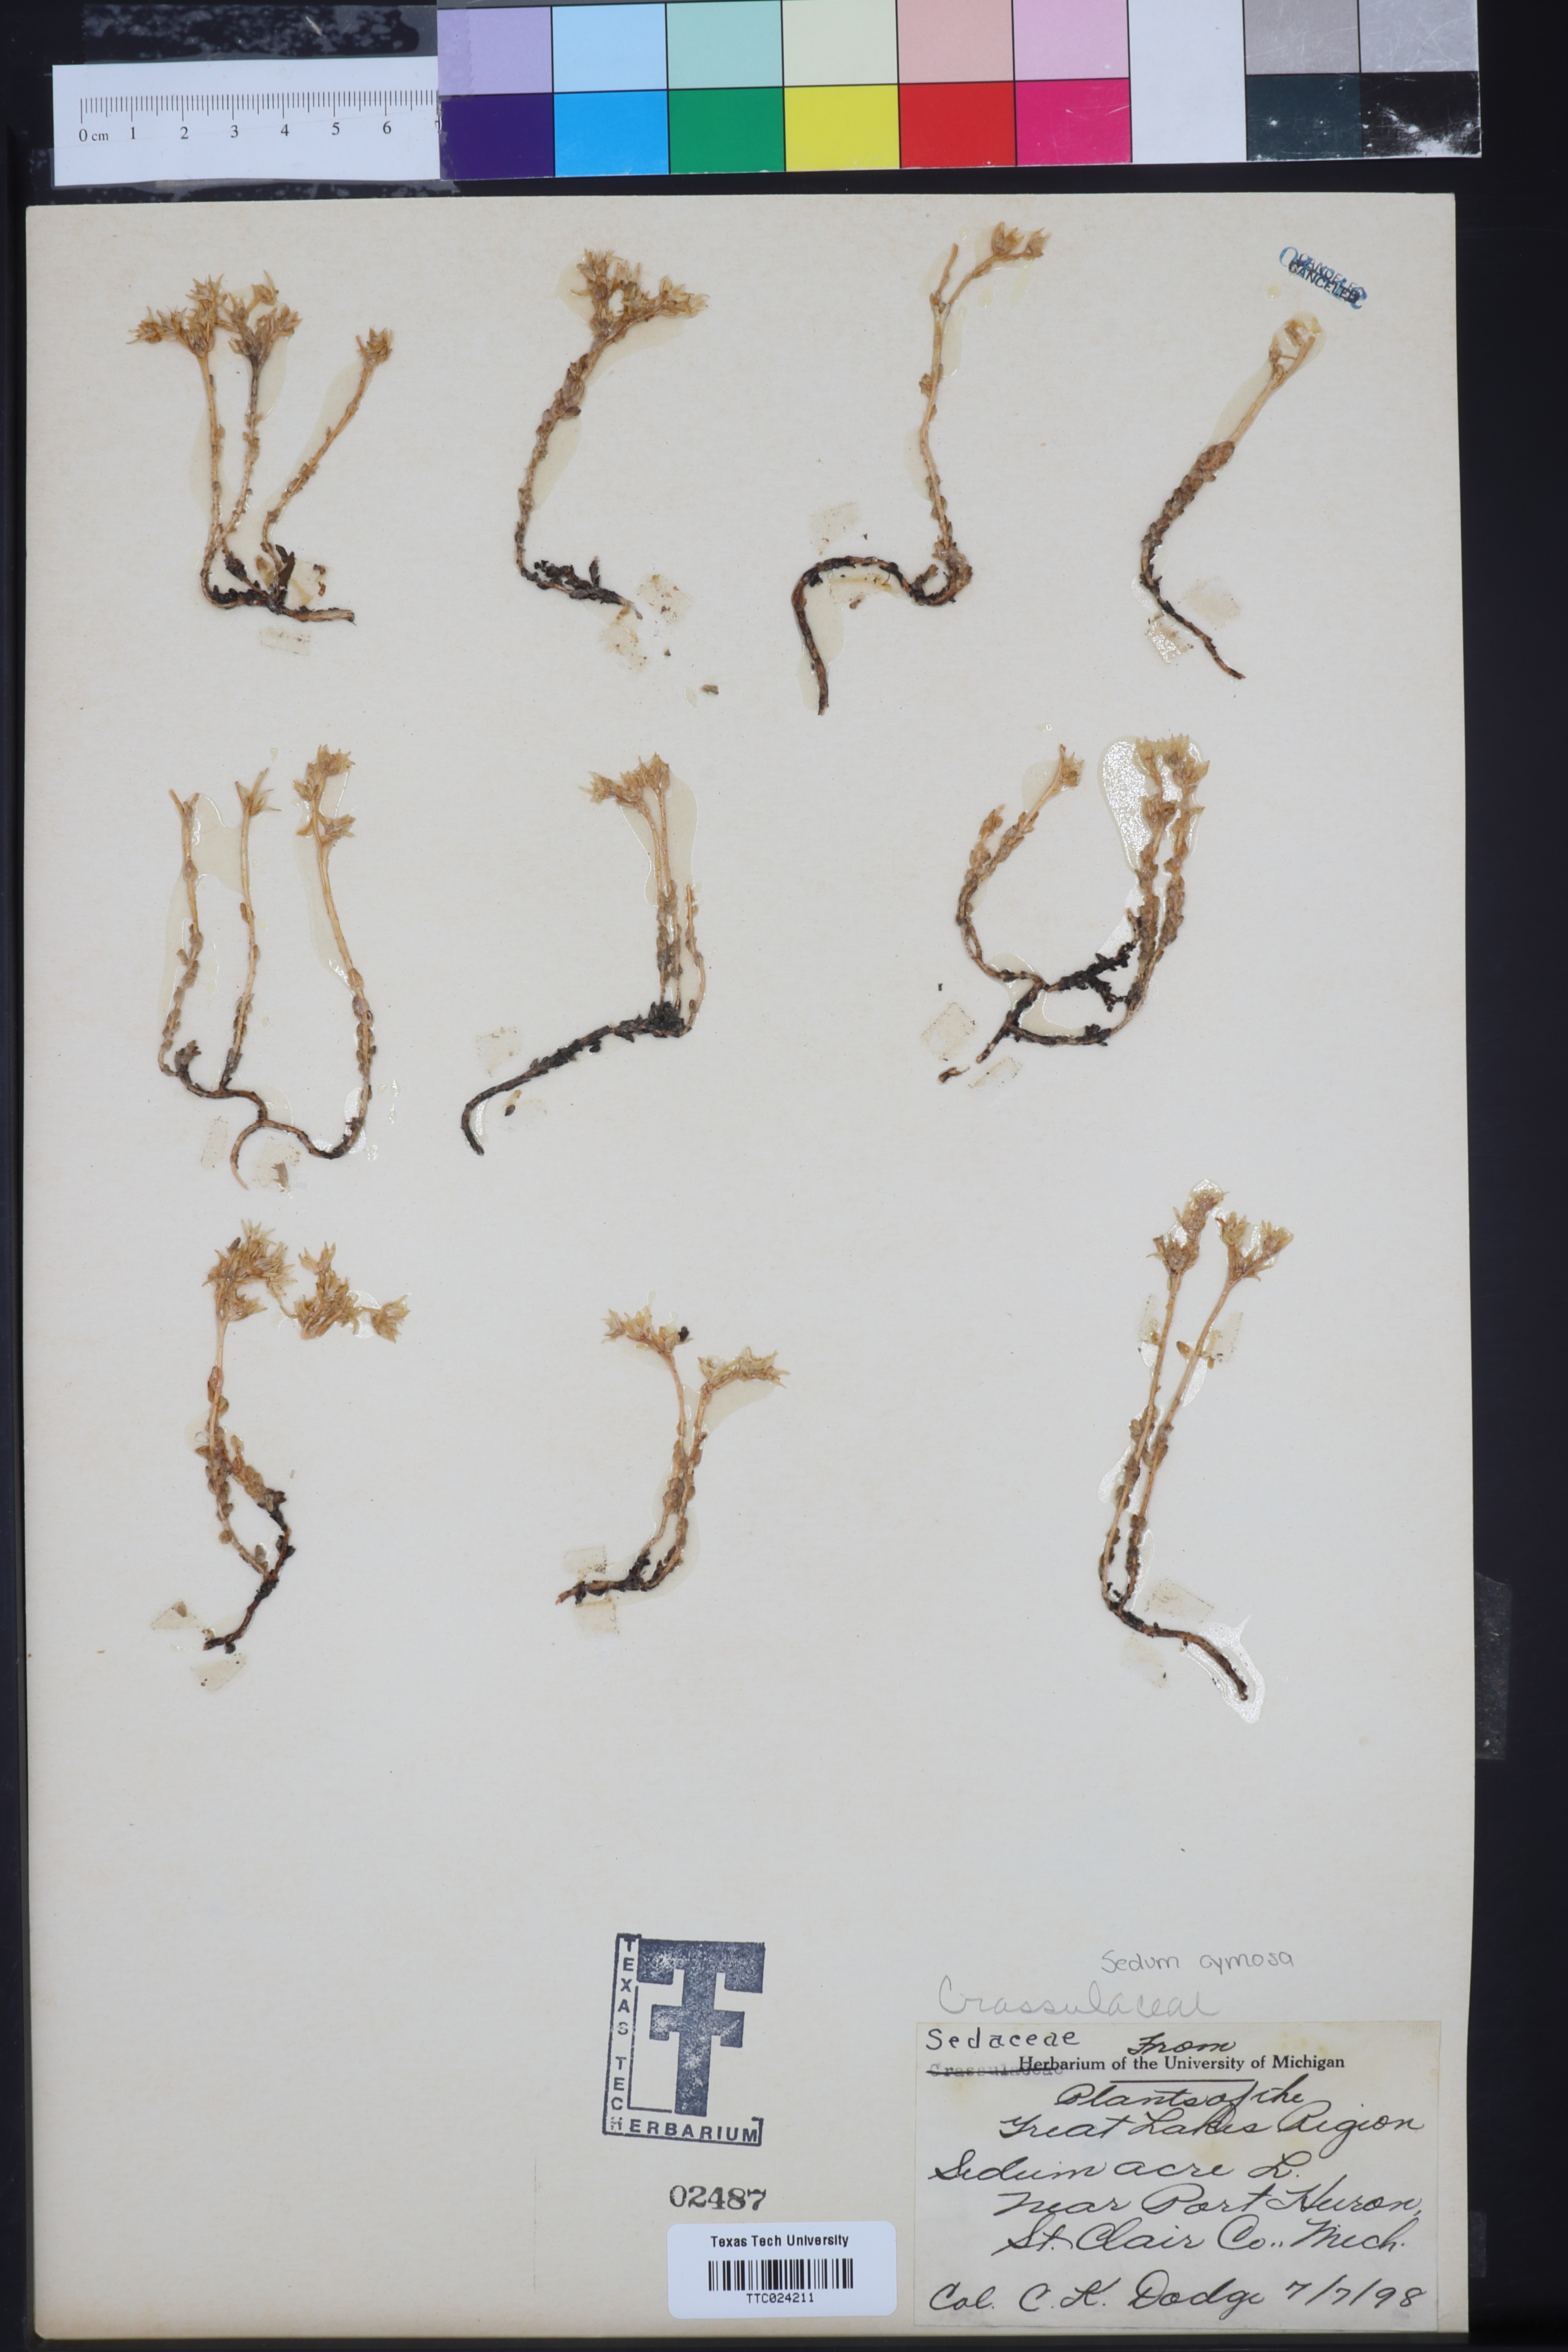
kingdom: Plantae
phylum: Tracheophyta
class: Magnoliopsida
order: Saxifragales
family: Crassulaceae
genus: Sedum
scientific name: Sedum acre
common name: Biting stonecrop
